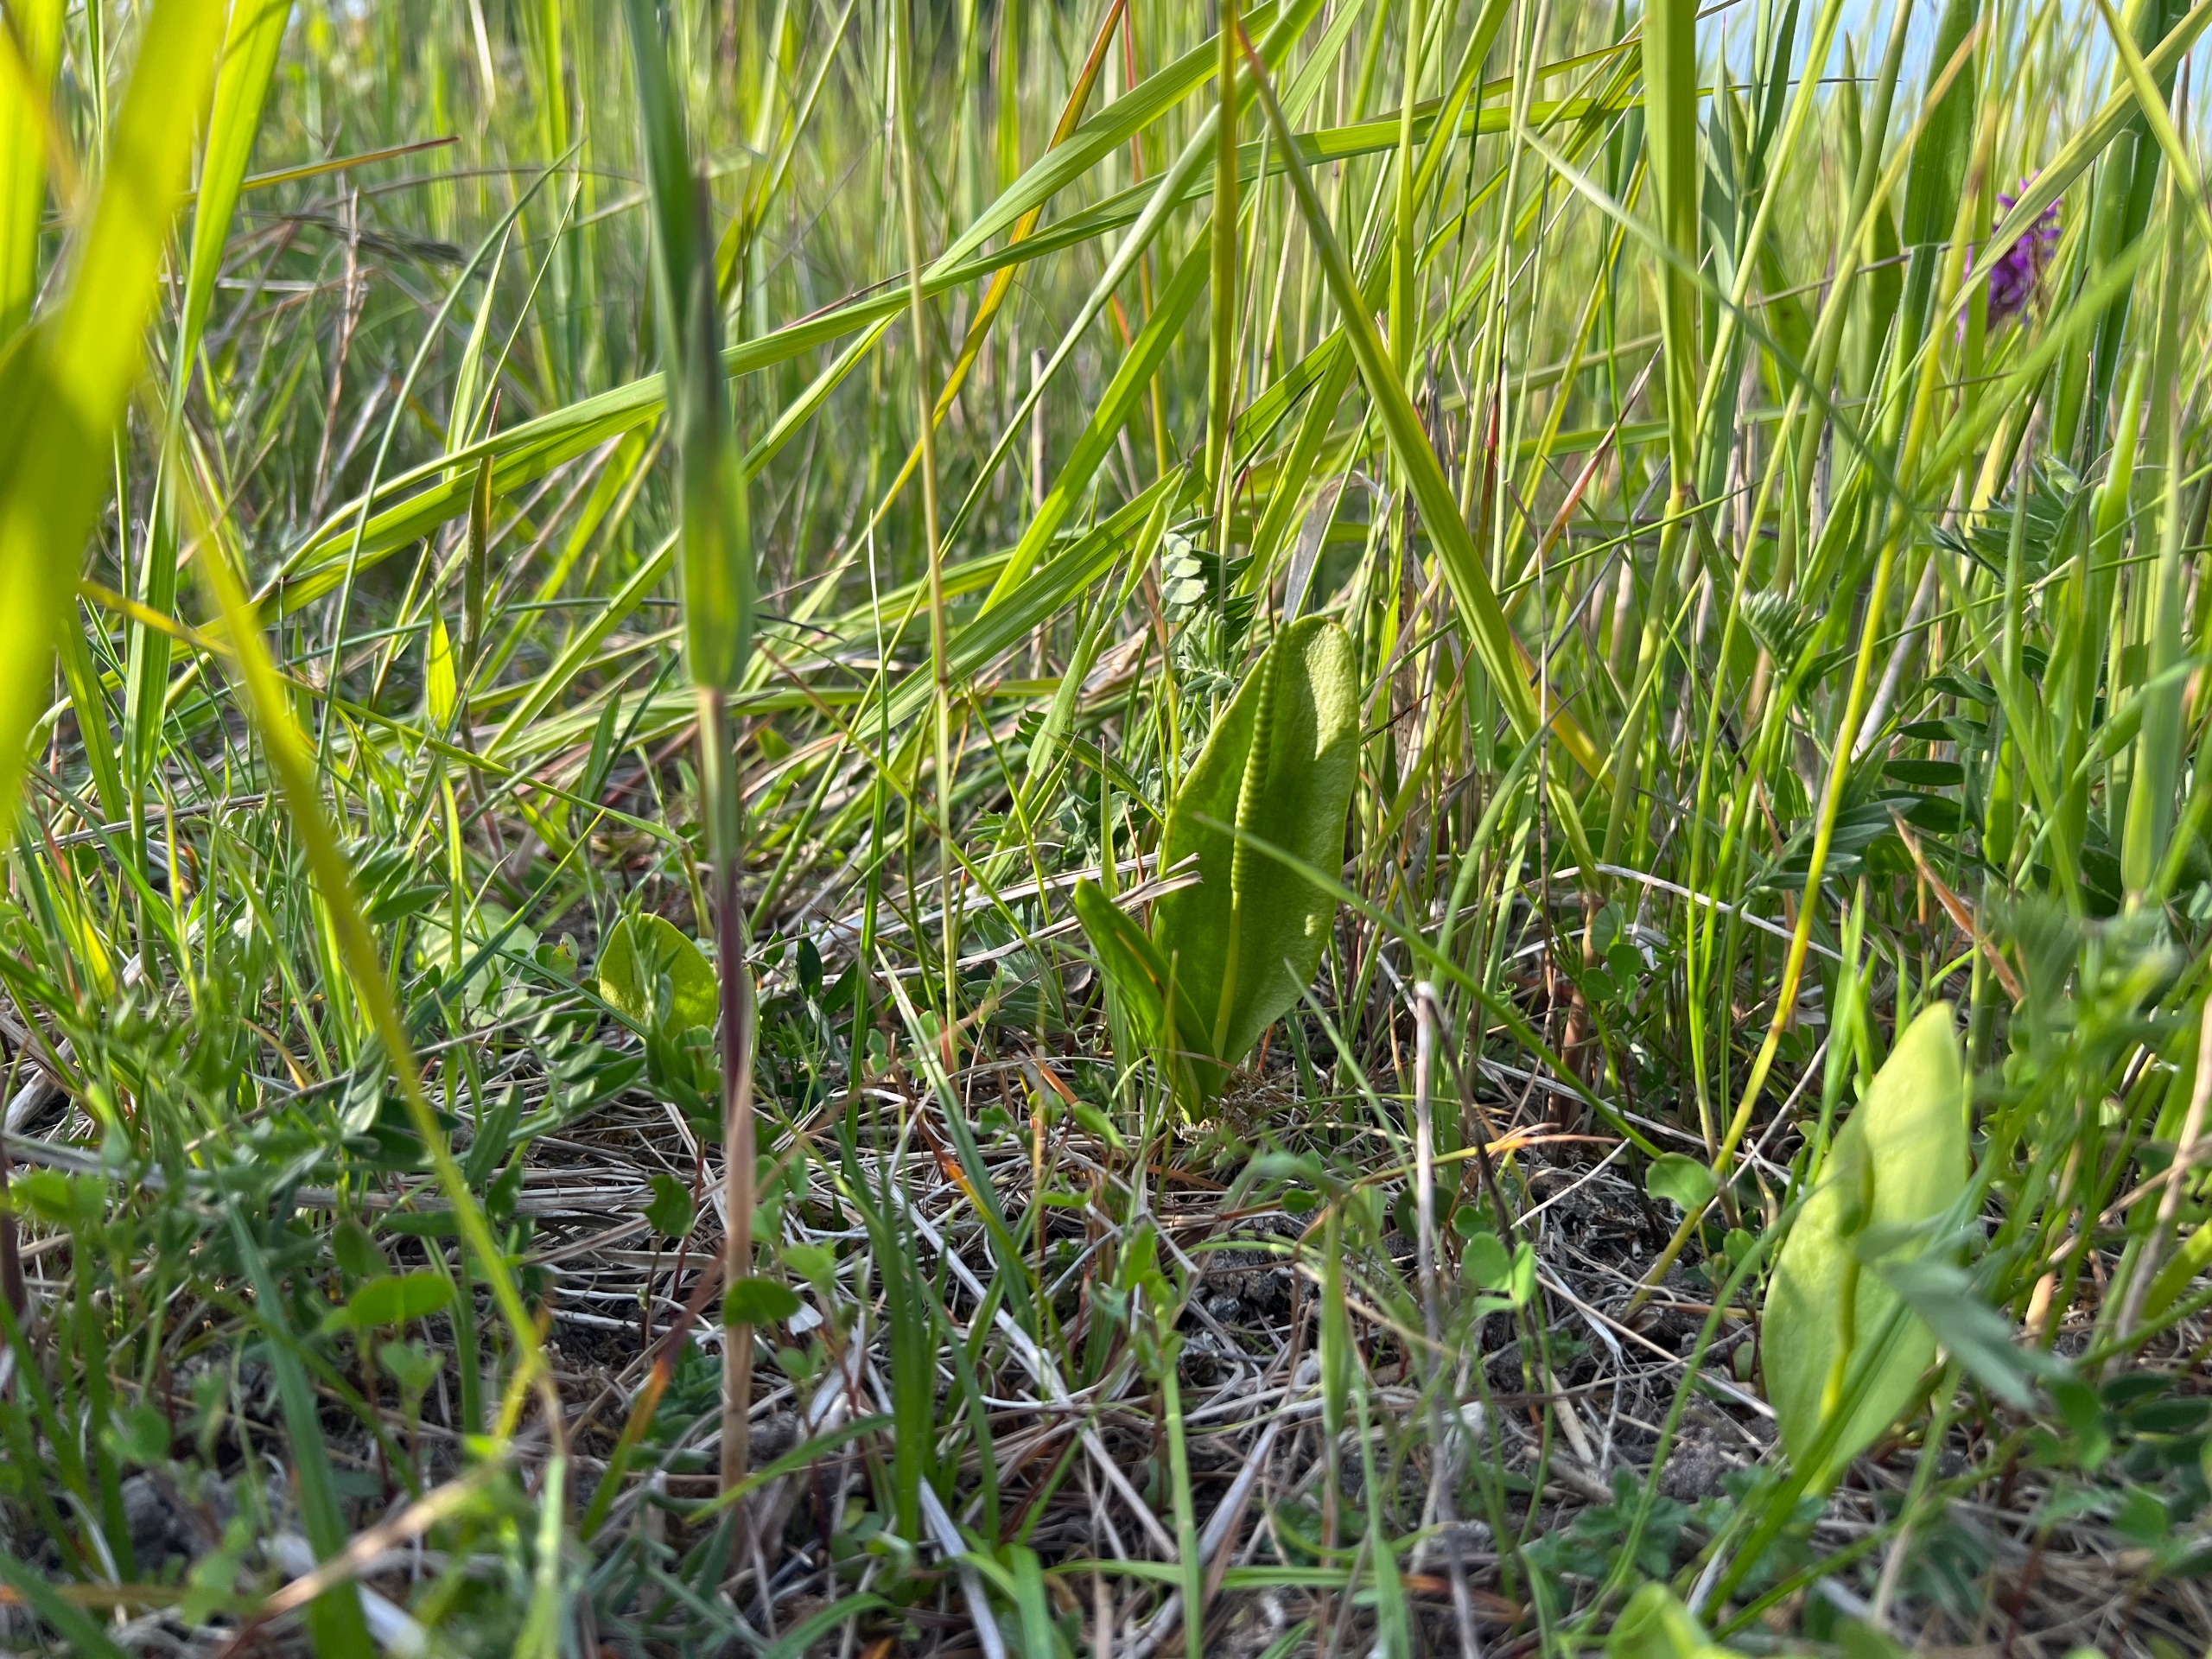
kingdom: Plantae
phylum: Tracheophyta
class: Polypodiopsida
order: Ophioglossales
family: Ophioglossaceae
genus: Ophioglossum
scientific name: Ophioglossum vulgatum
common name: Slangetunge
